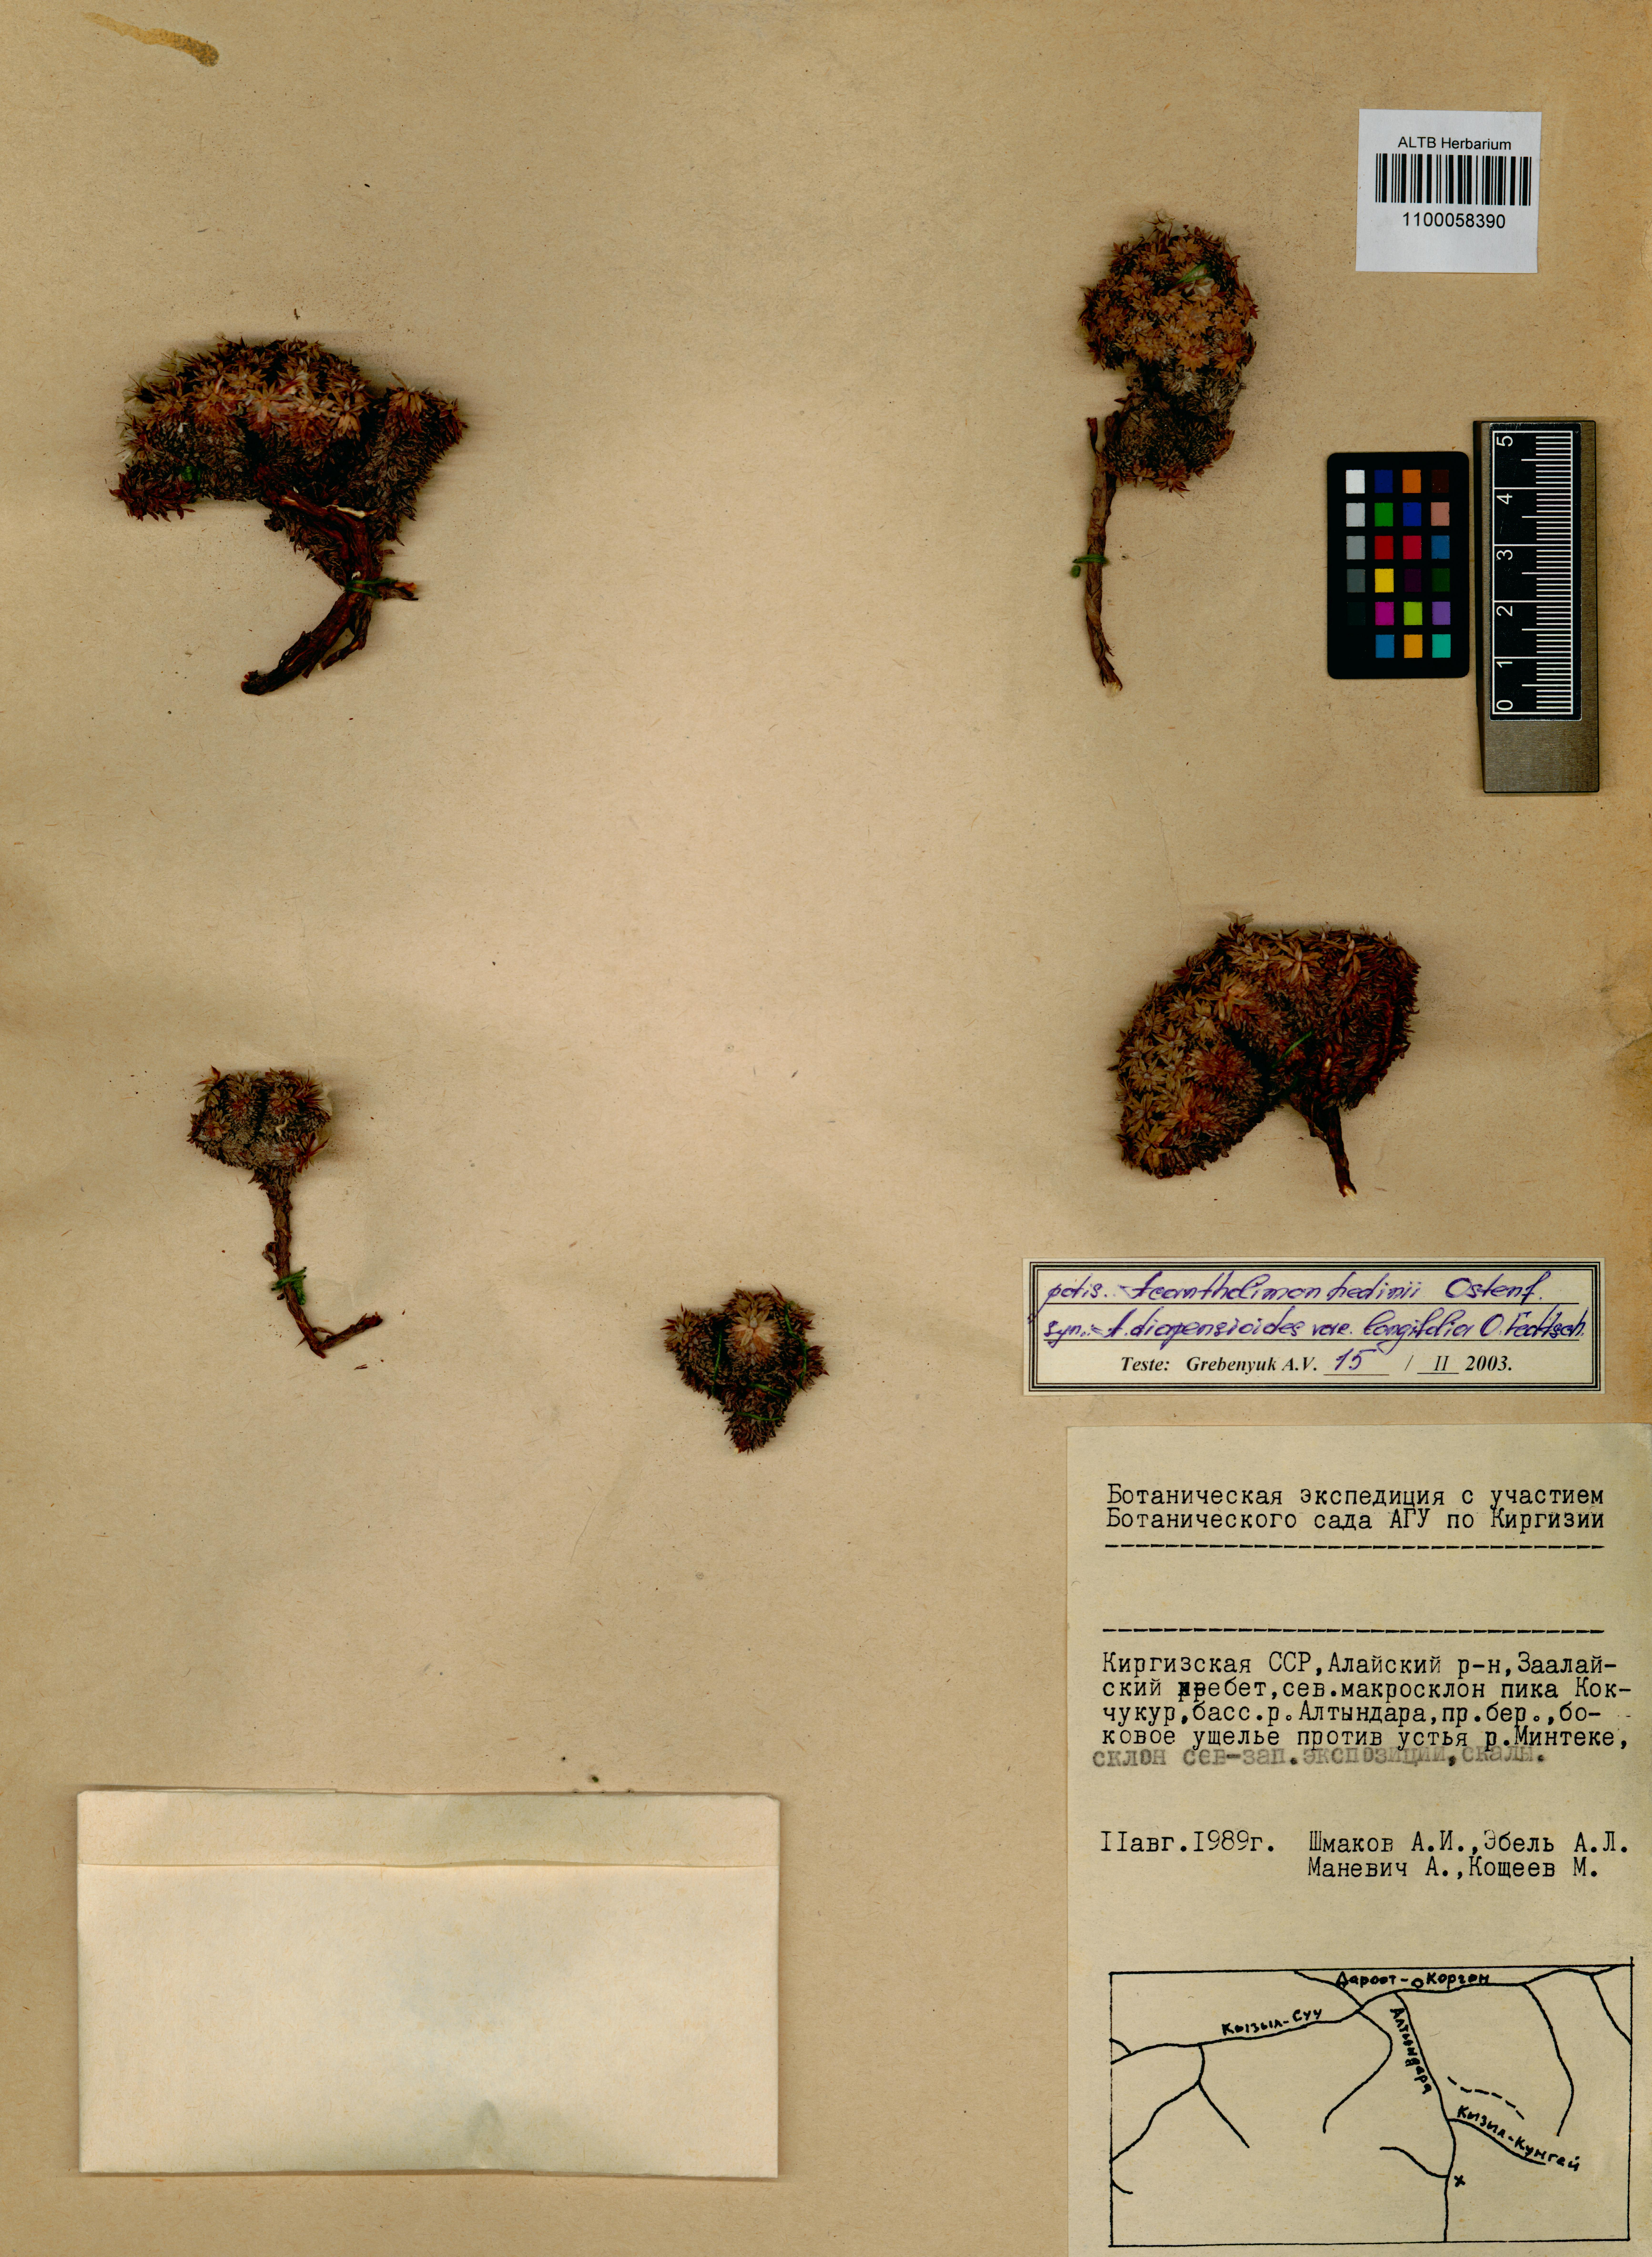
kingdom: Plantae
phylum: Tracheophyta
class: Magnoliopsida
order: Caryophyllales
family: Plumbaginaceae
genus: Acantholimon
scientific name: Acantholimon hedinii
